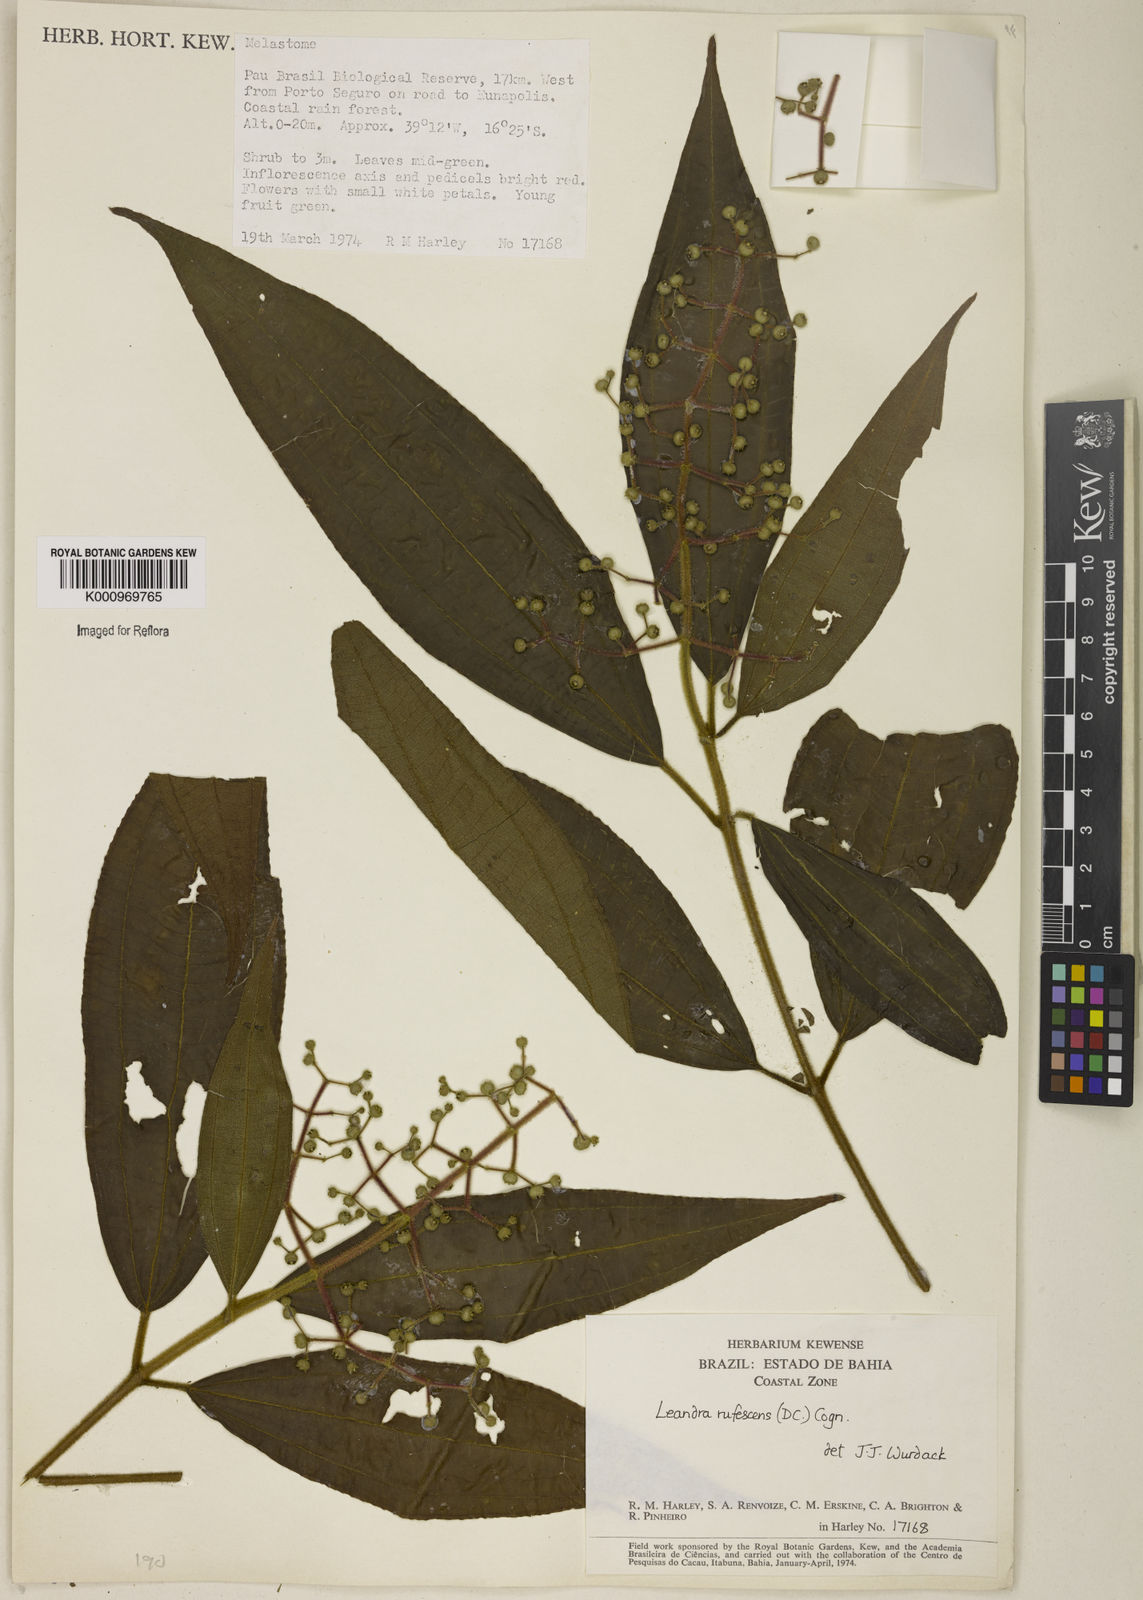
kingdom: Plantae
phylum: Tracheophyta
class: Magnoliopsida
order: Myrtales
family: Melastomataceae
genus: Miconia
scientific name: Miconia asperiuscula
